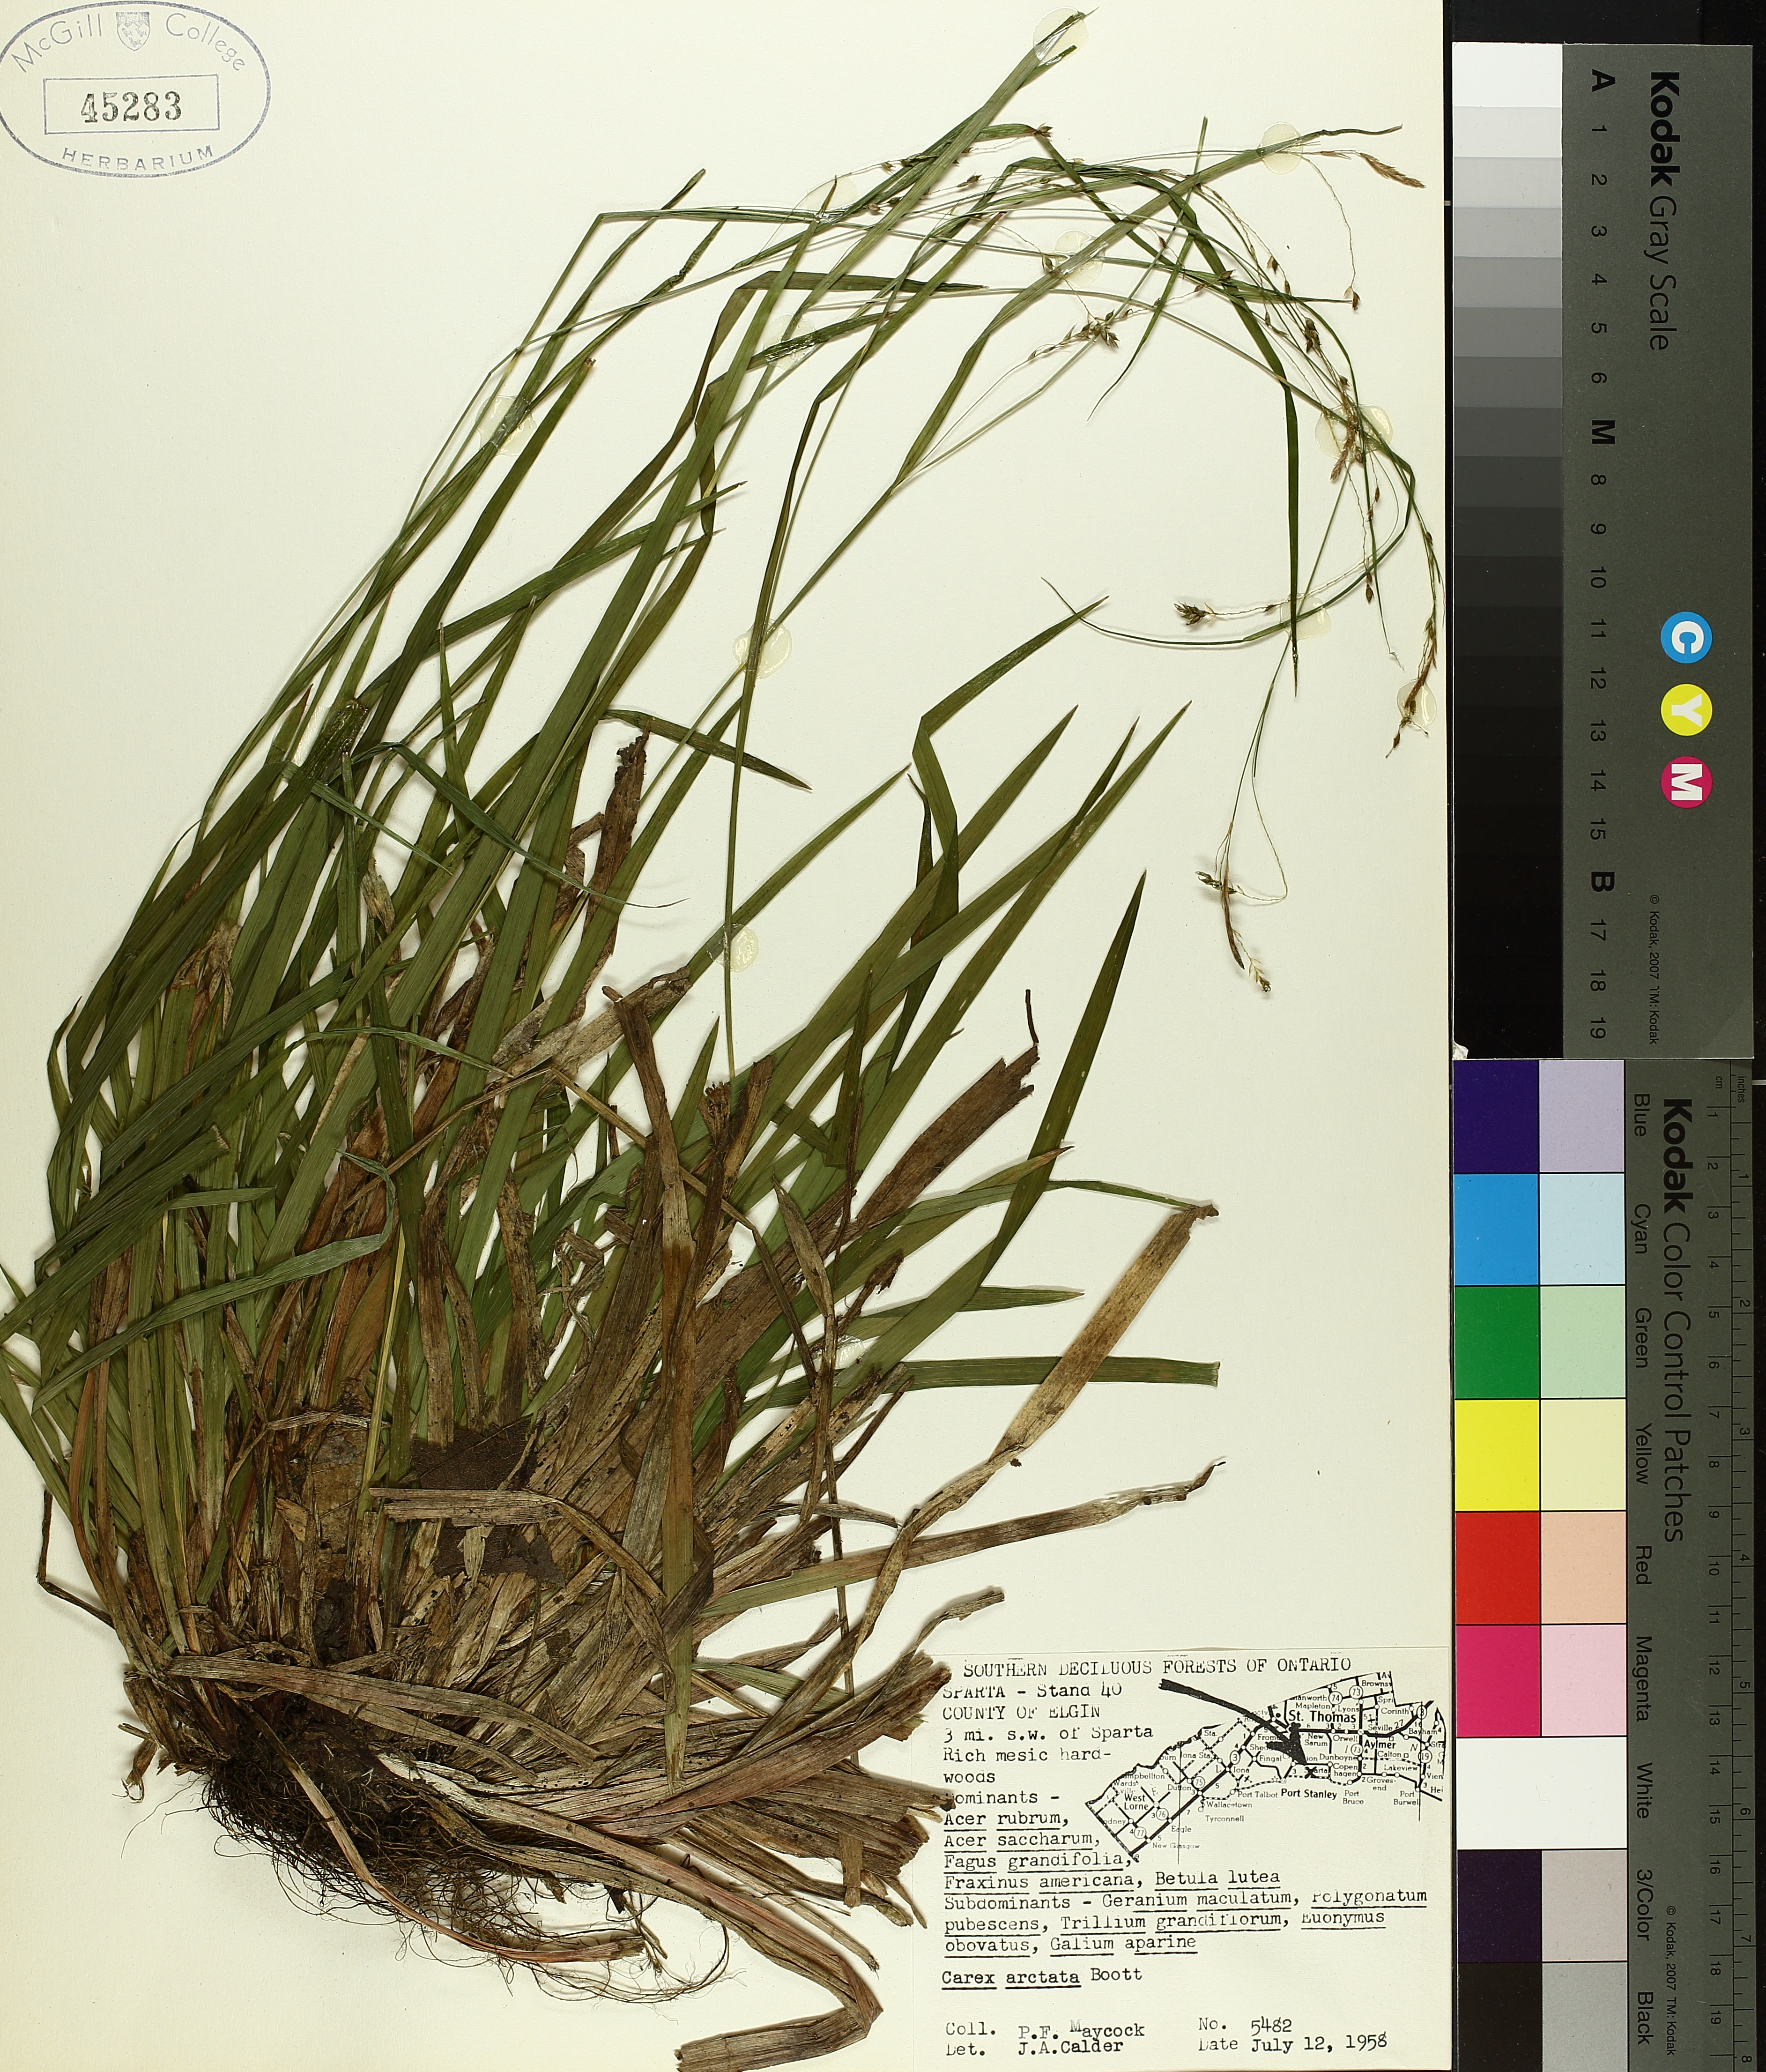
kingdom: Plantae
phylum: Tracheophyta
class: Liliopsida
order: Poales
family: Cyperaceae
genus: Carex
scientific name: Carex arctata
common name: Black sedge
